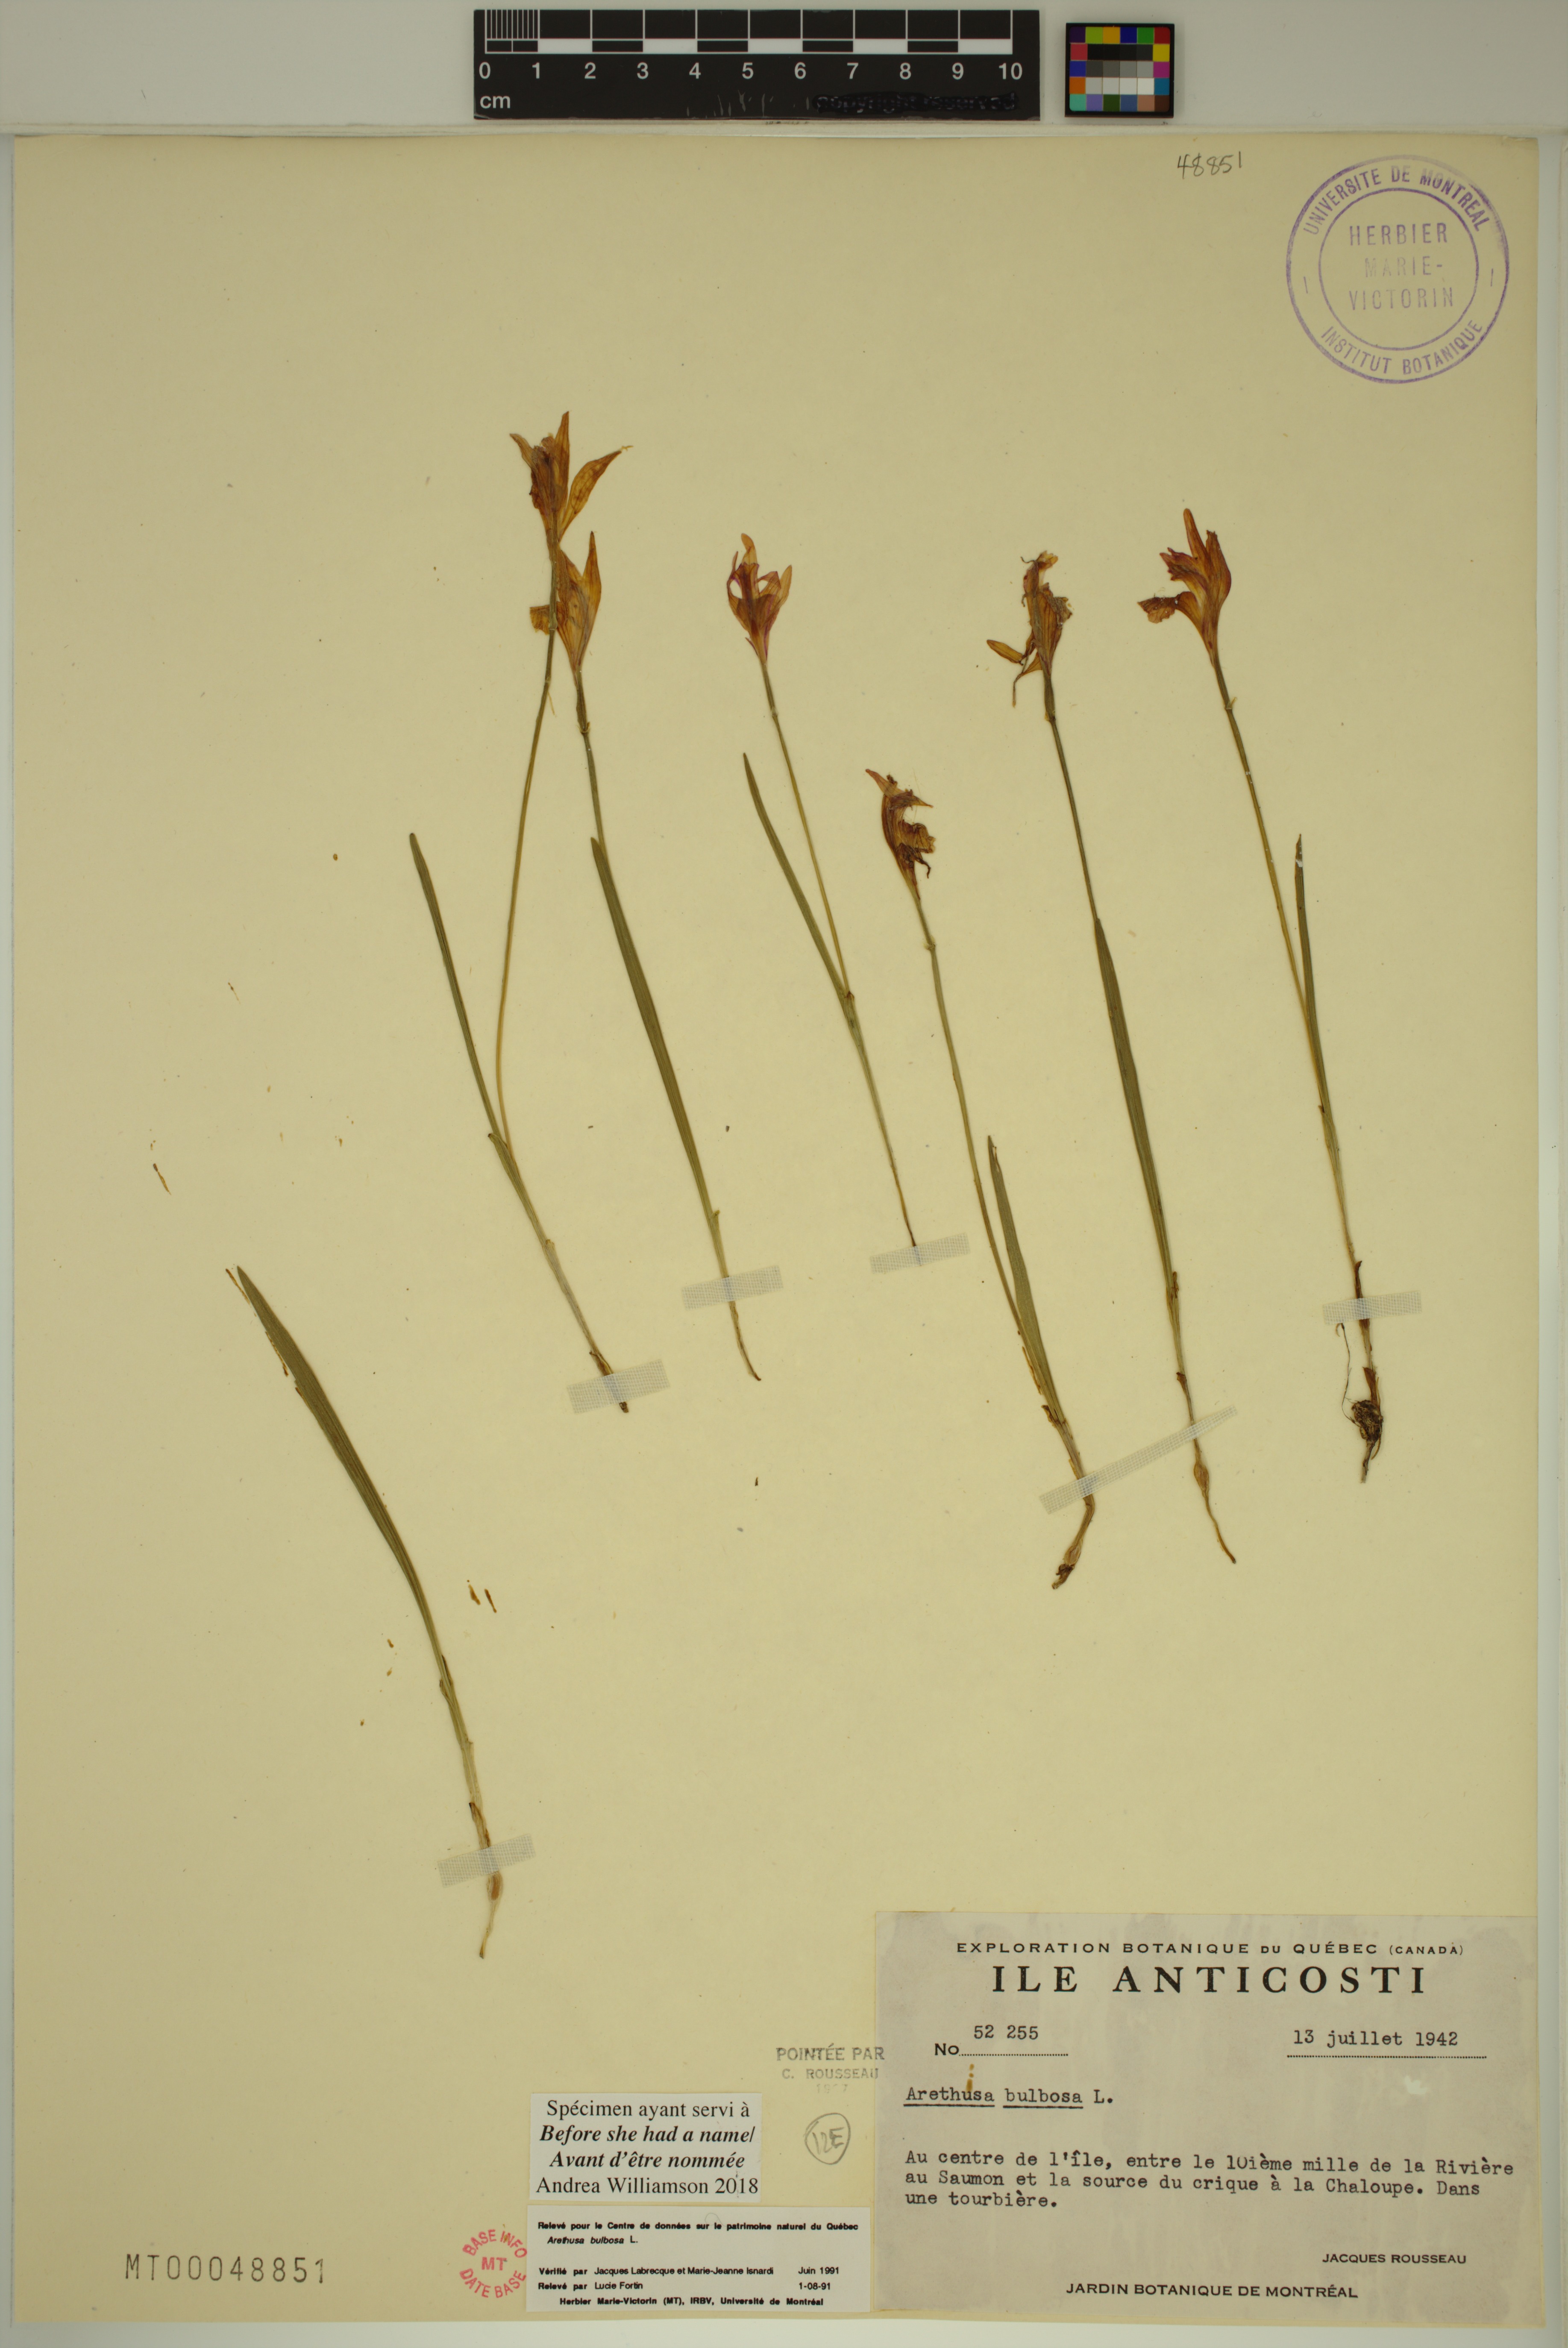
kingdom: Plantae
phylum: Tracheophyta
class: Liliopsida
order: Asparagales
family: Orchidaceae
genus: Arethusa
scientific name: Arethusa bulbosa
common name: Arethusa
